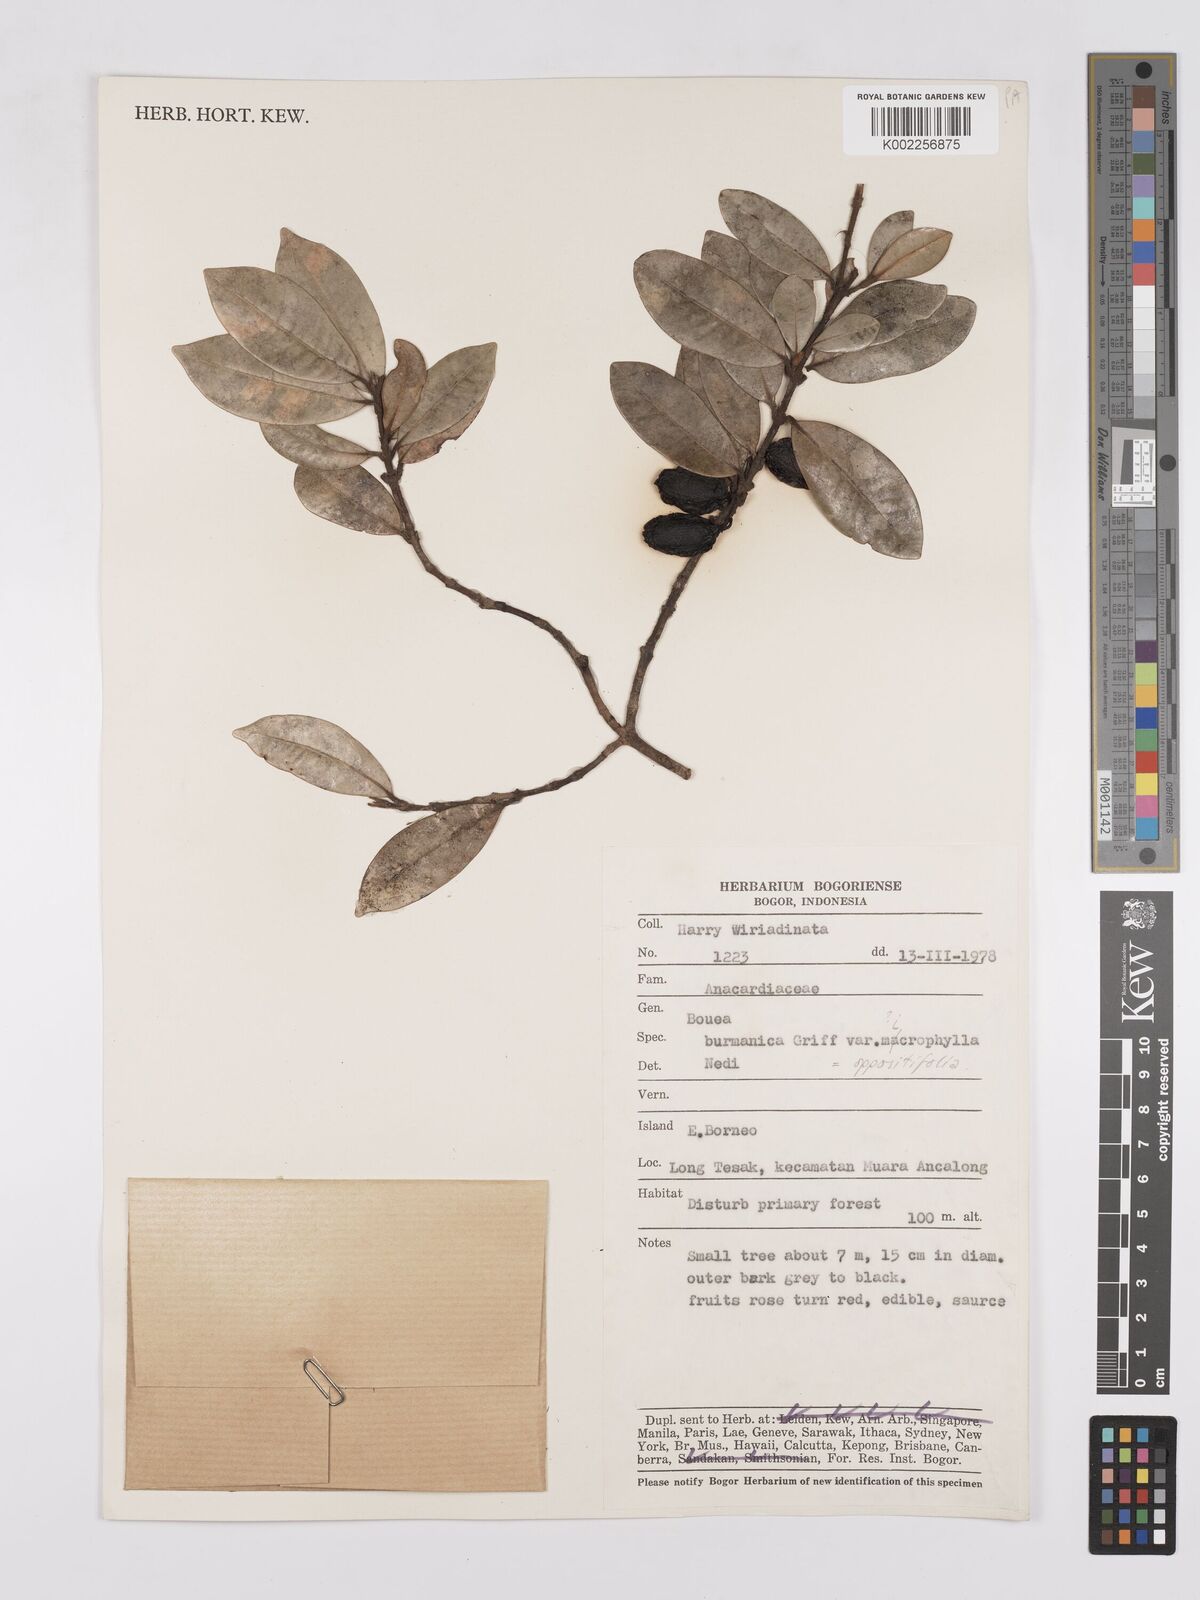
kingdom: Plantae
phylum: Tracheophyta
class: Magnoliopsida
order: Sapindales
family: Anacardiaceae
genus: Bouea
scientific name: Bouea oppositifolia
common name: Narrow-leaved kundang
